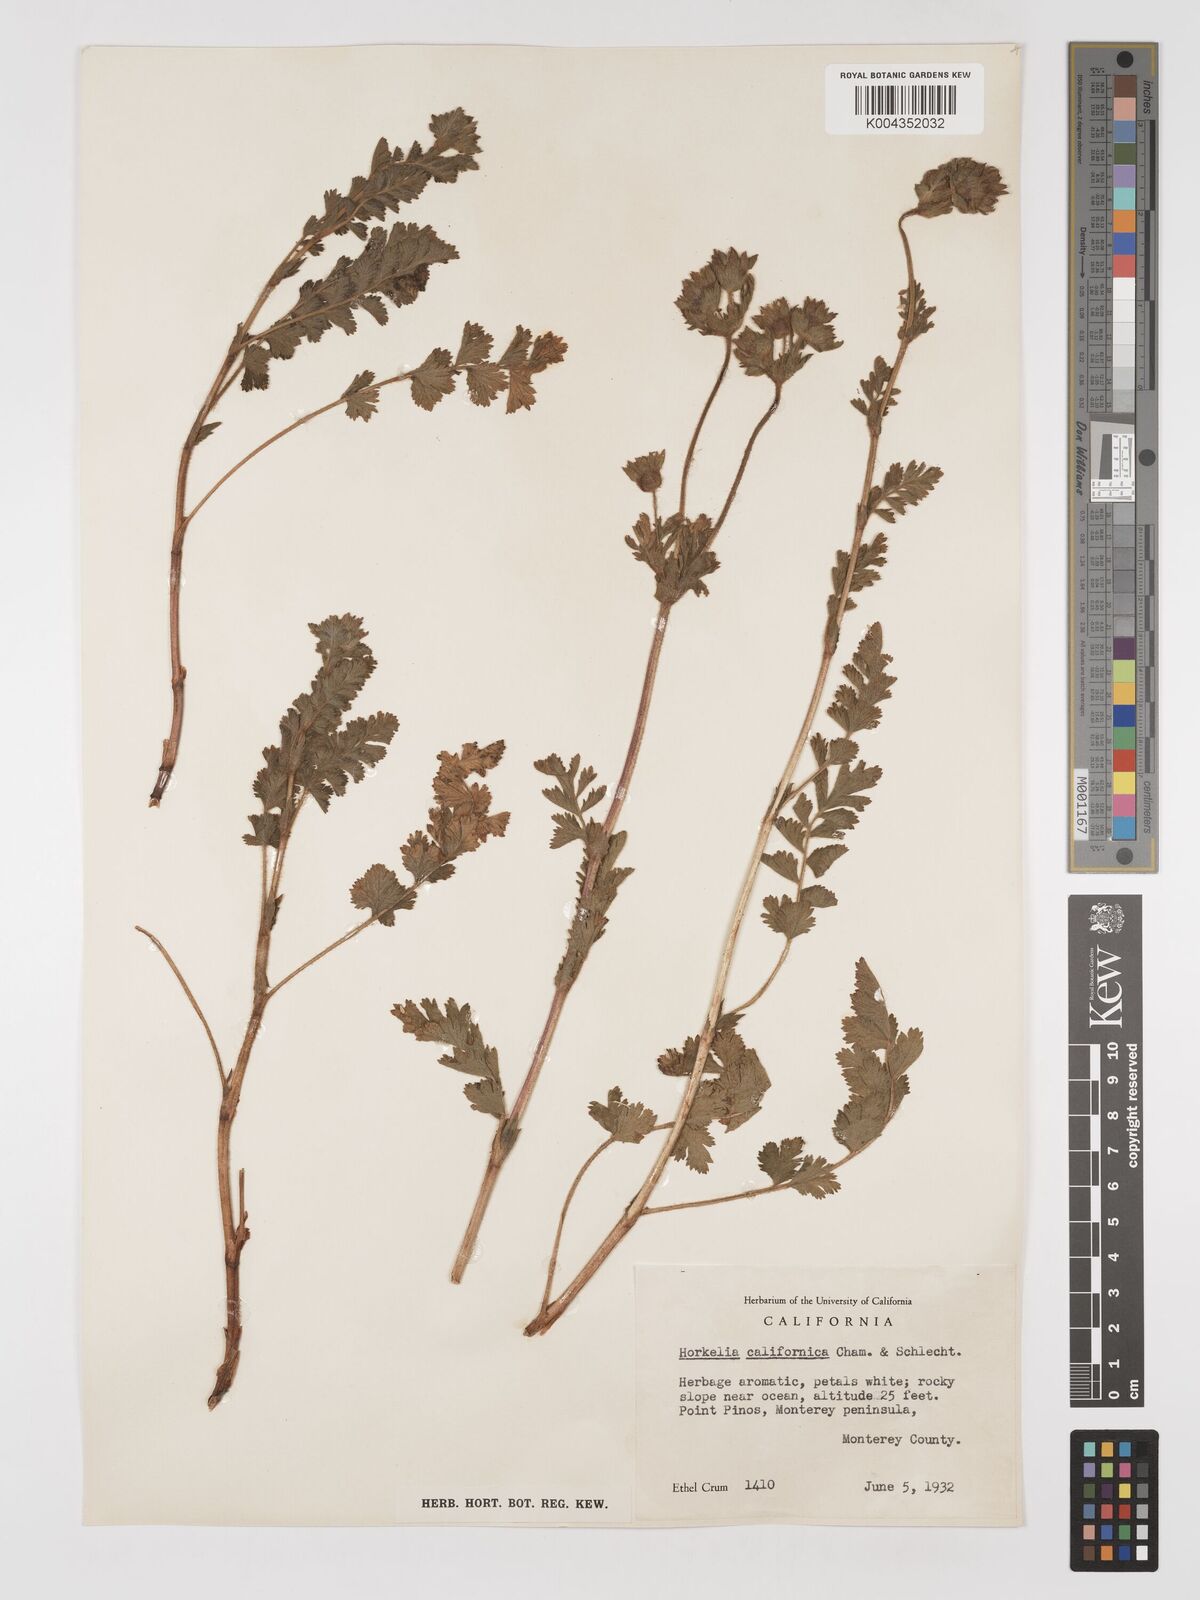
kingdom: Plantae
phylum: Tracheophyta
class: Magnoliopsida
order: Rosales
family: Rosaceae
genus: Potentilla
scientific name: Potentilla californica
